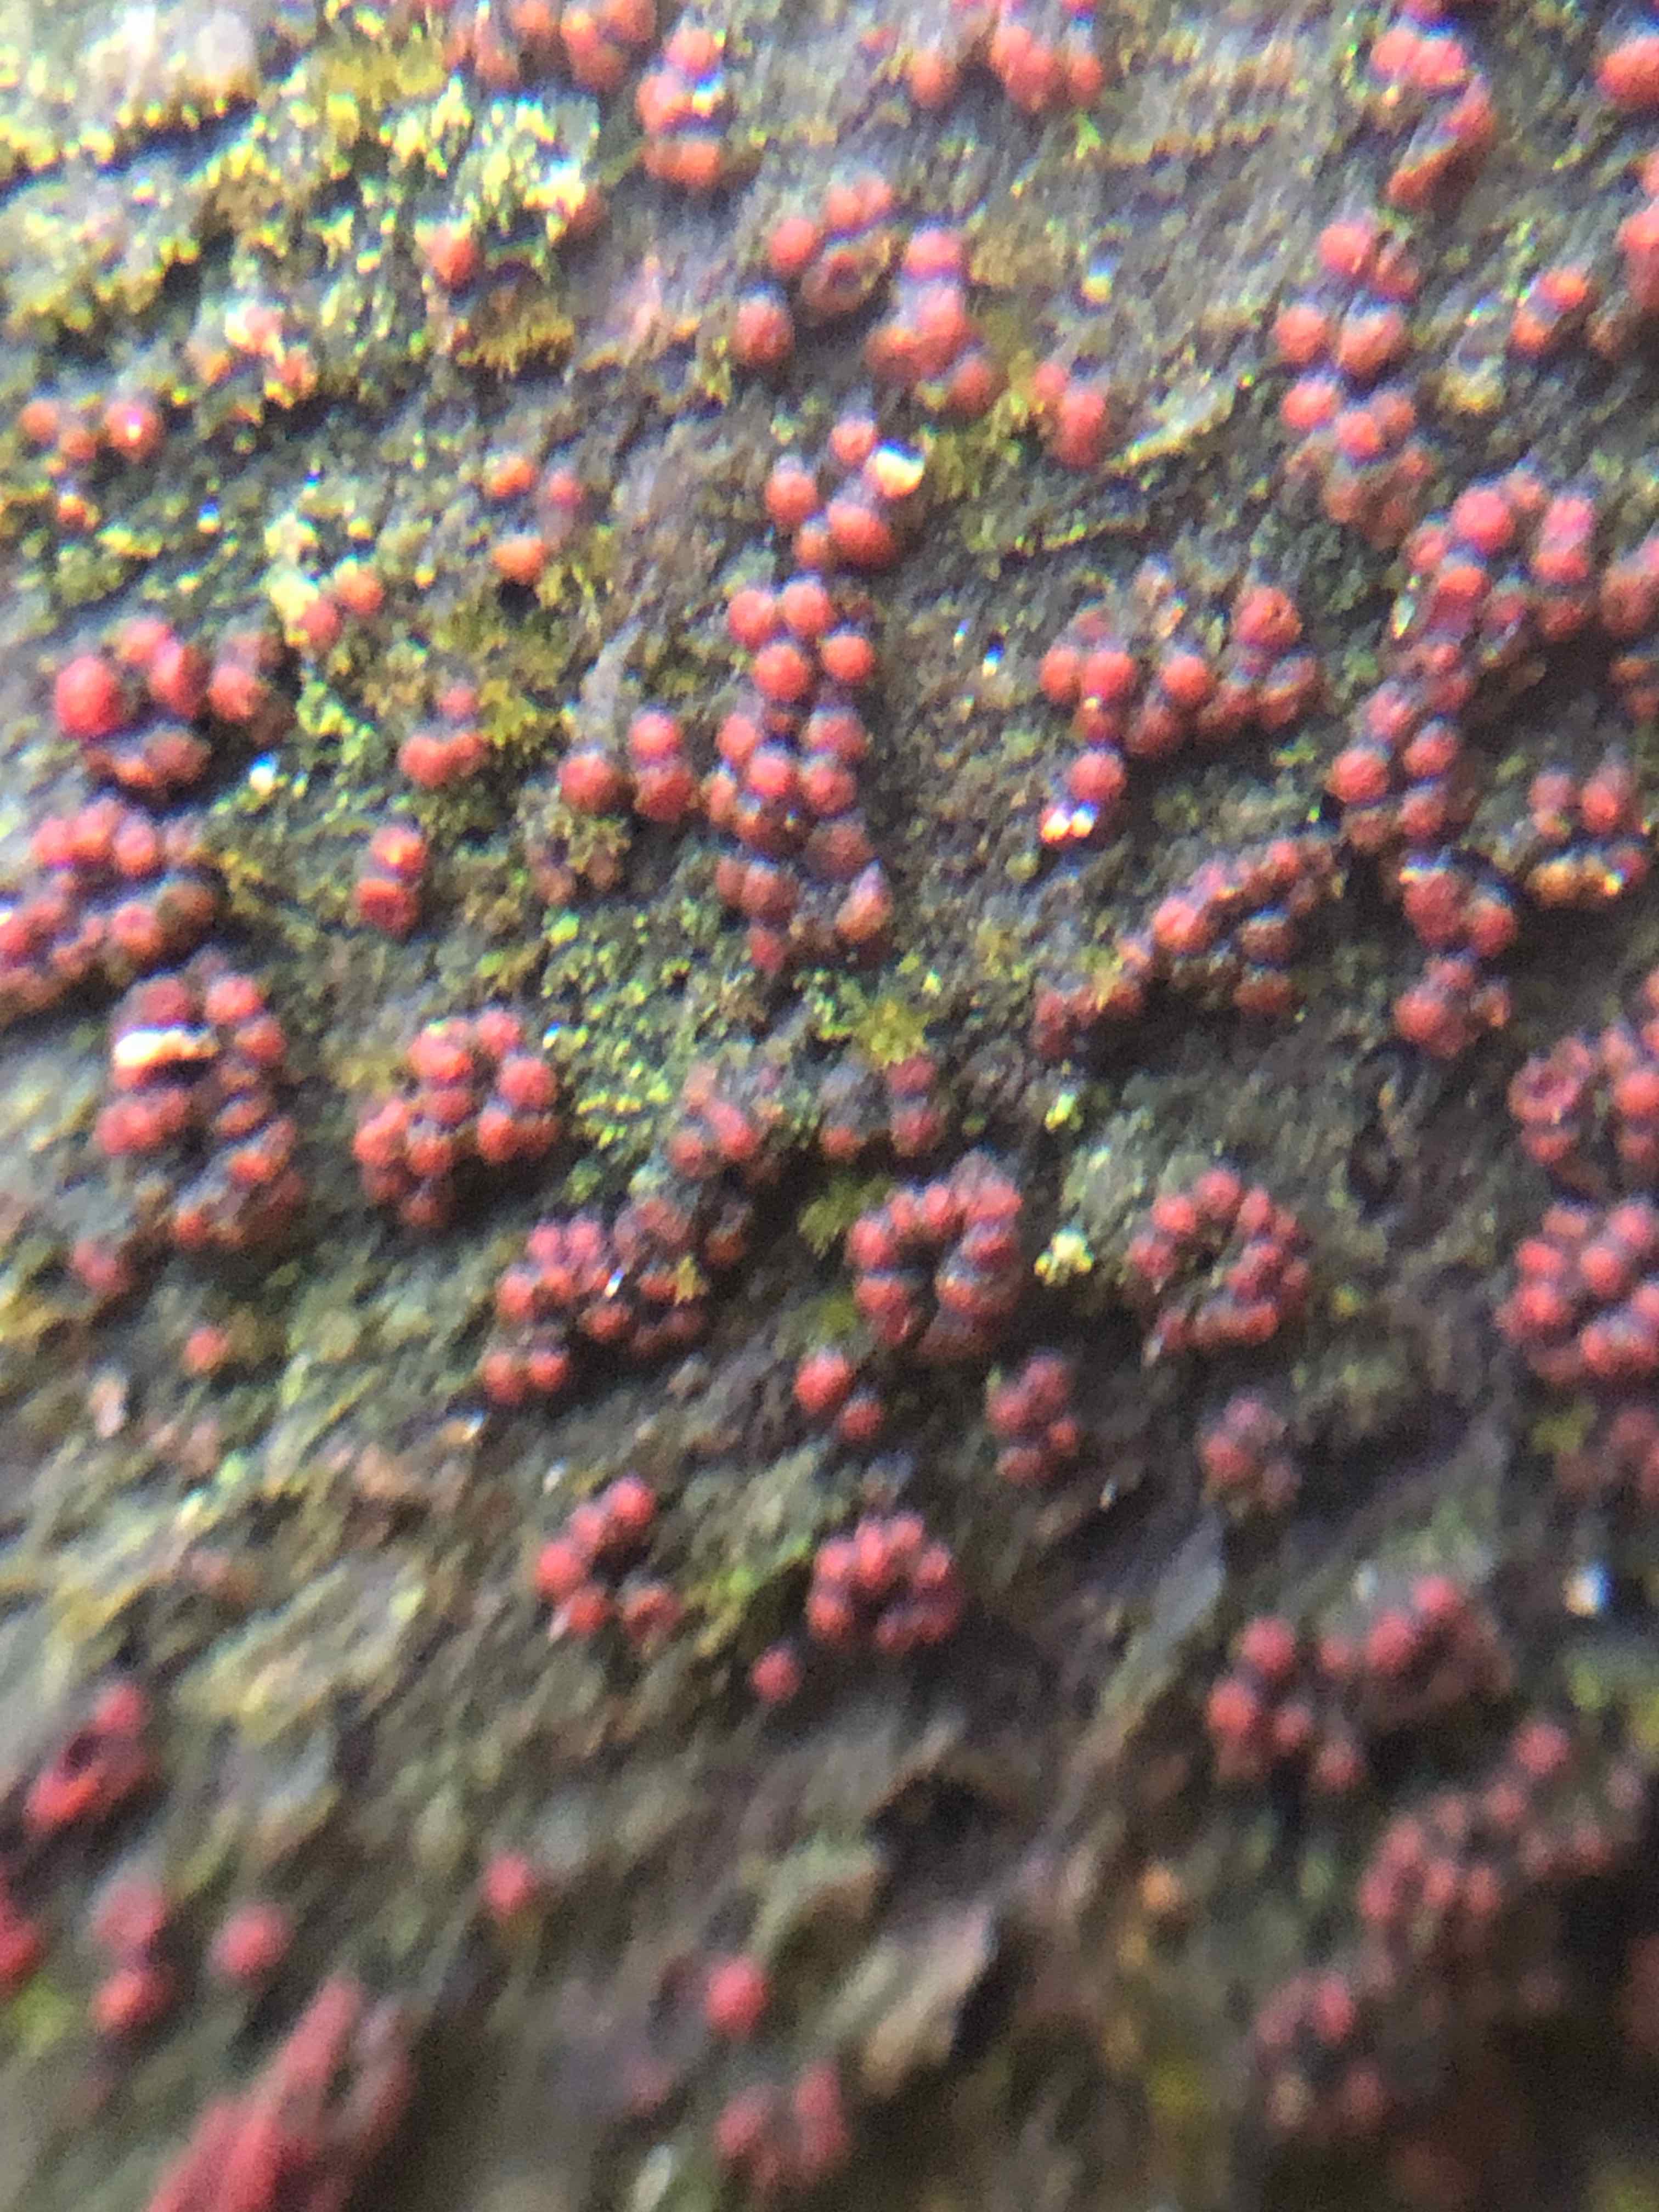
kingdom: Fungi
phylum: Ascomycota
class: Sordariomycetes
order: Hypocreales
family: Nectriaceae
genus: Neonectria
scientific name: Neonectria coccinea
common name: bøgebark-cinnobersvamp
